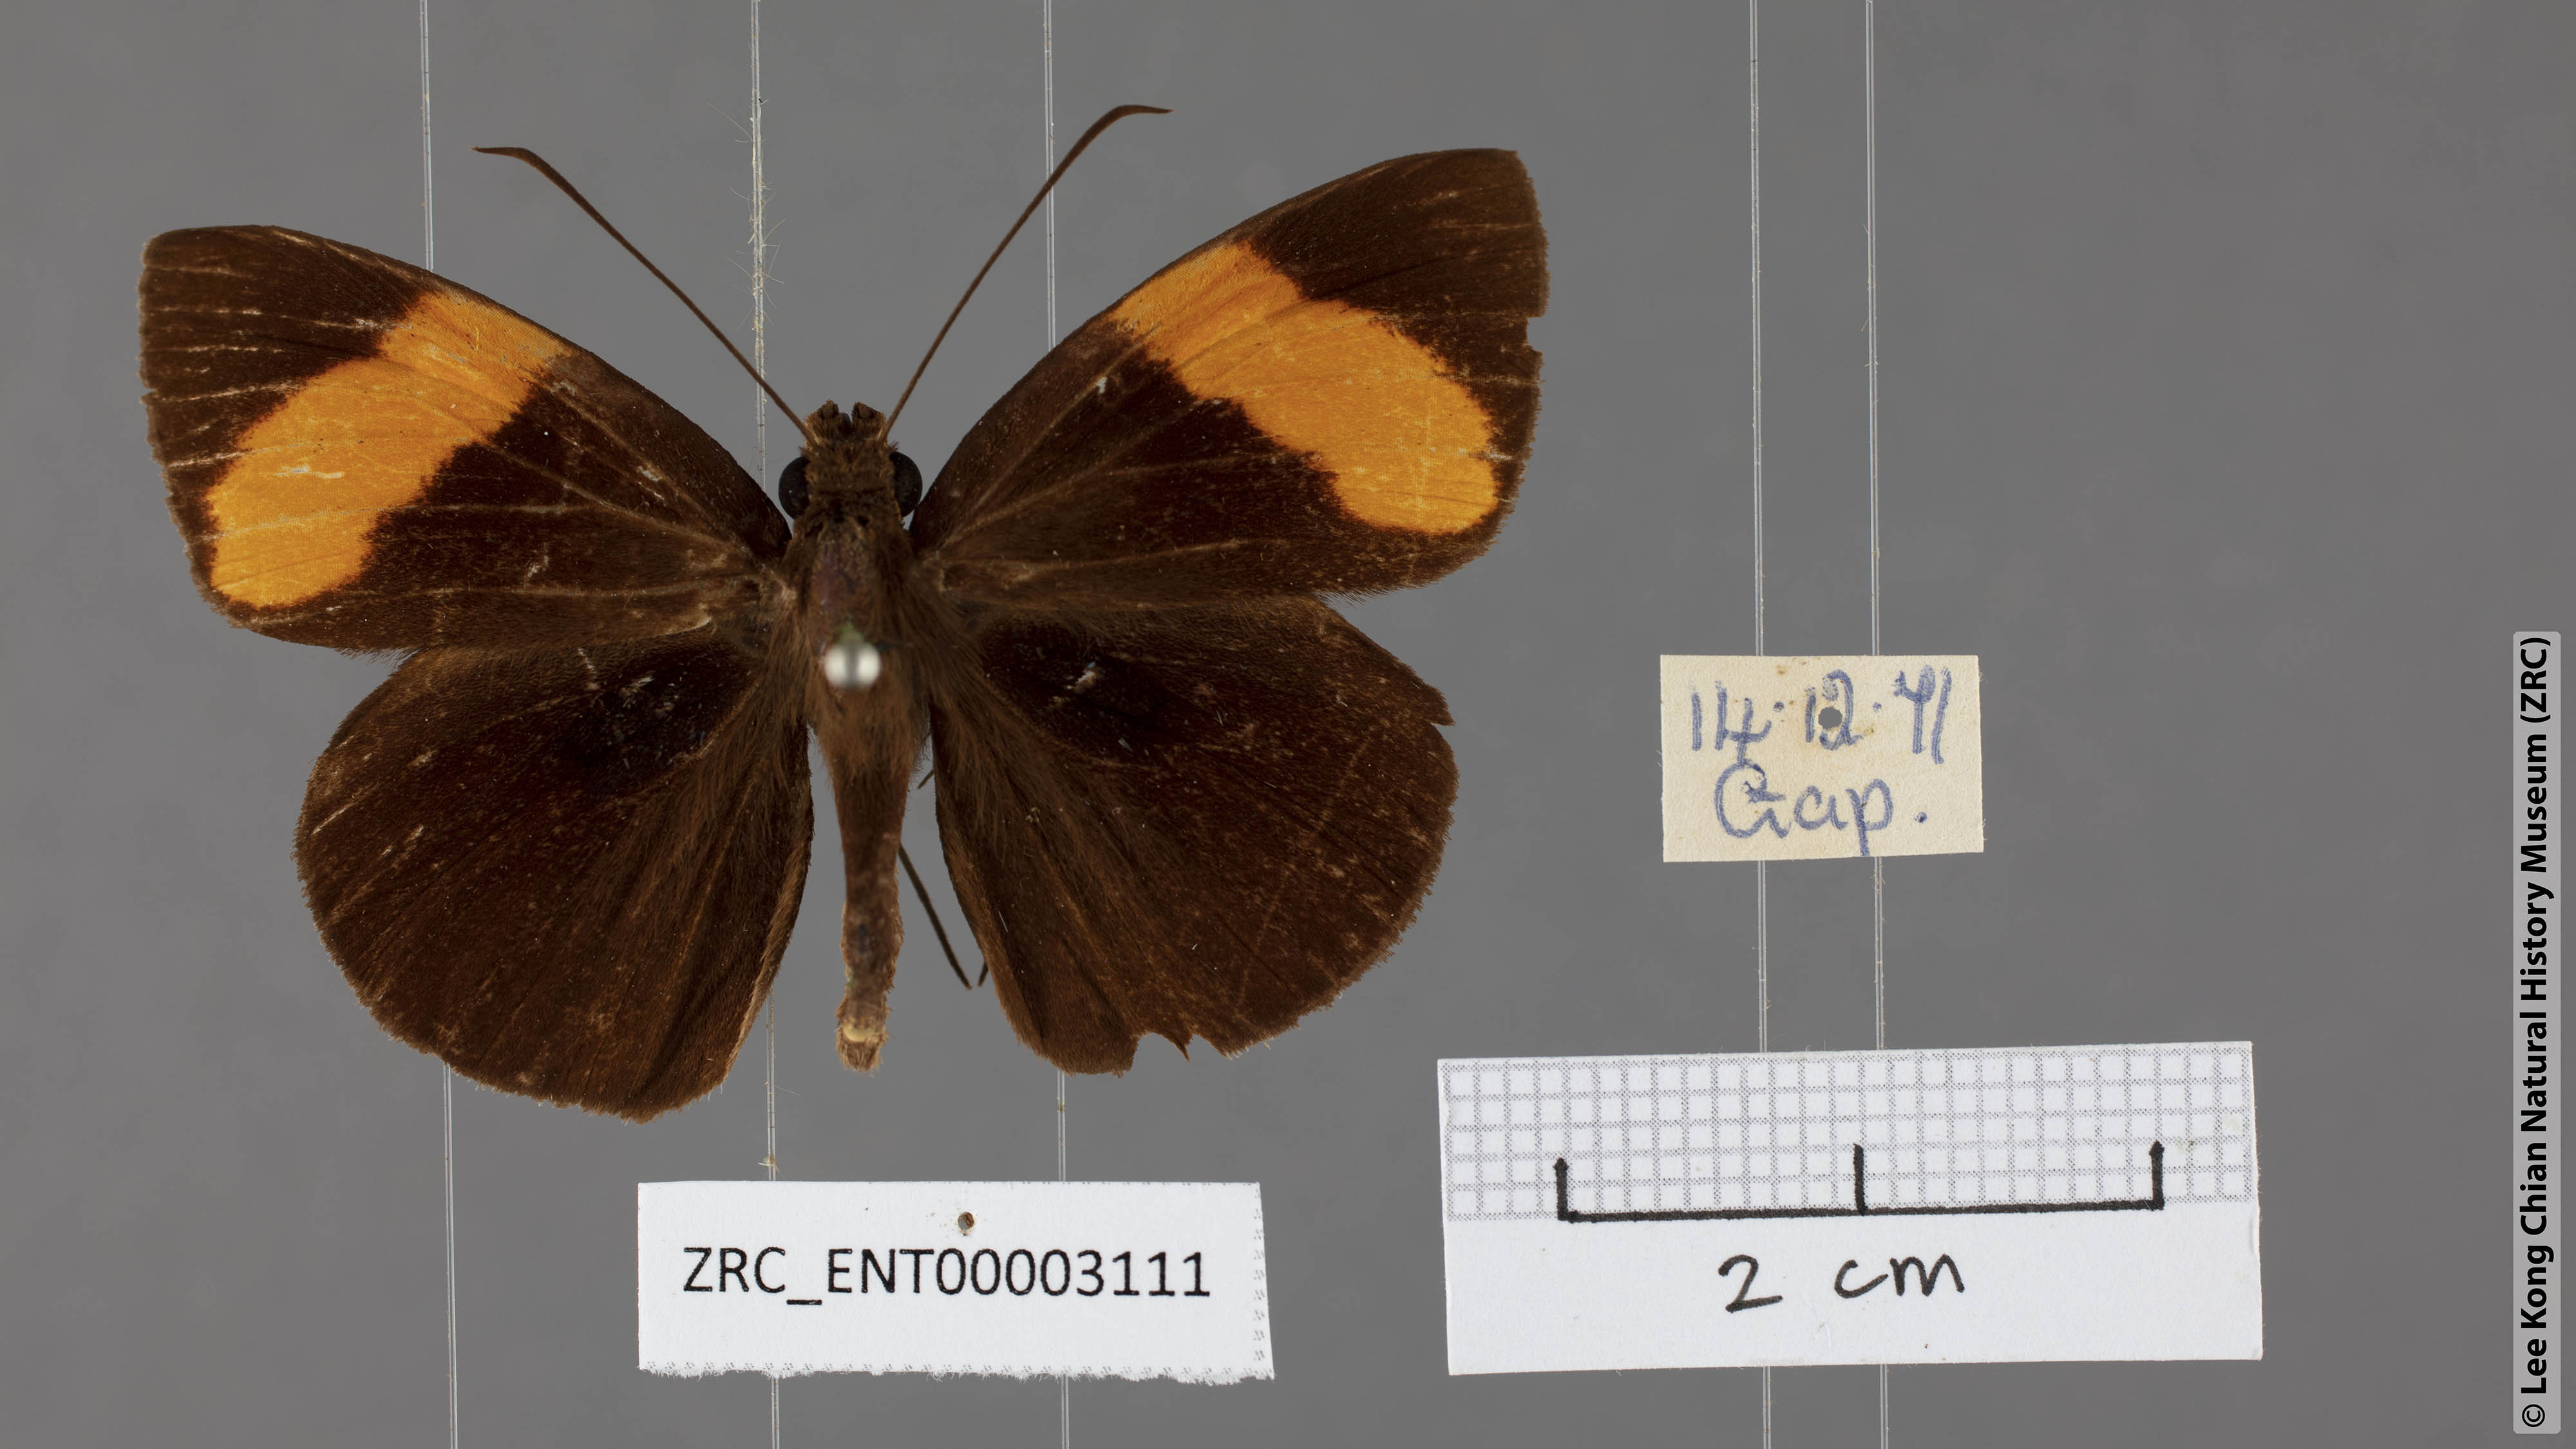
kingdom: Animalia
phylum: Arthropoda
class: Insecta
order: Lepidoptera
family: Hesperiidae
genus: Ancistroides
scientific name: Ancistroides armatus
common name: Red demon
